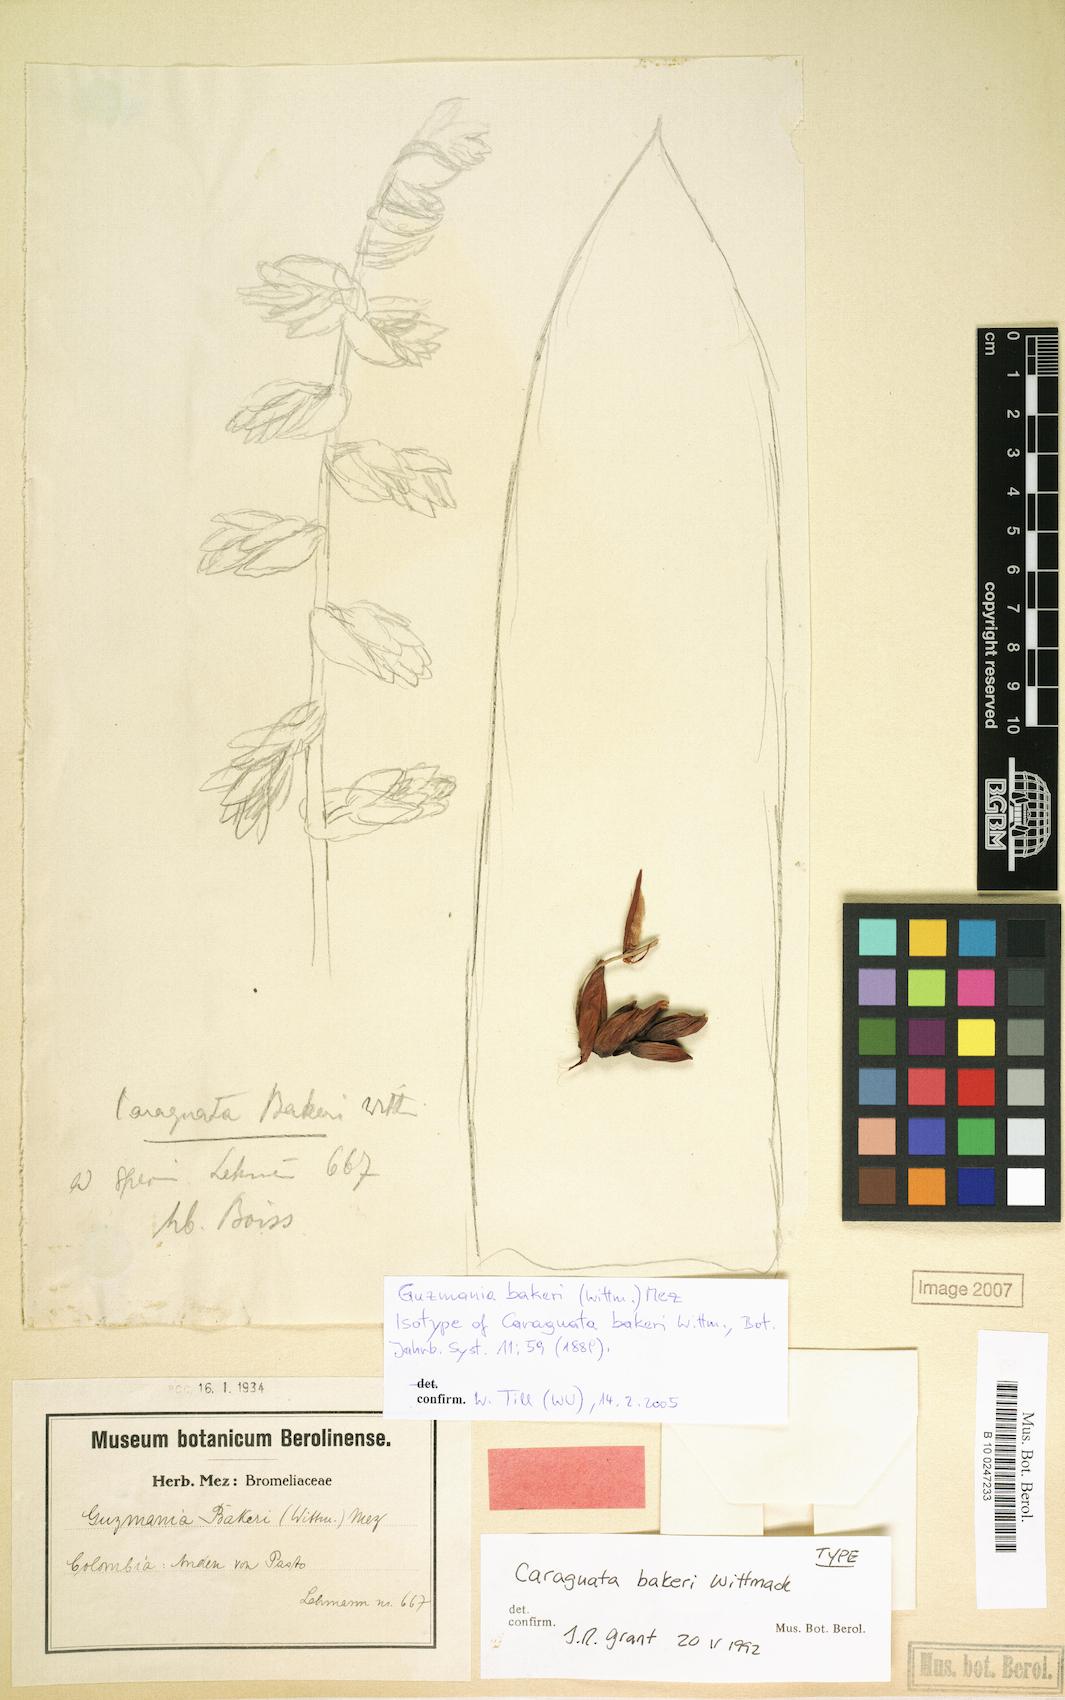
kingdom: Plantae
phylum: Tracheophyta
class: Liliopsida
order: Poales
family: Bromeliaceae
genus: Guzmania
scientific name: Guzmania bakeri
